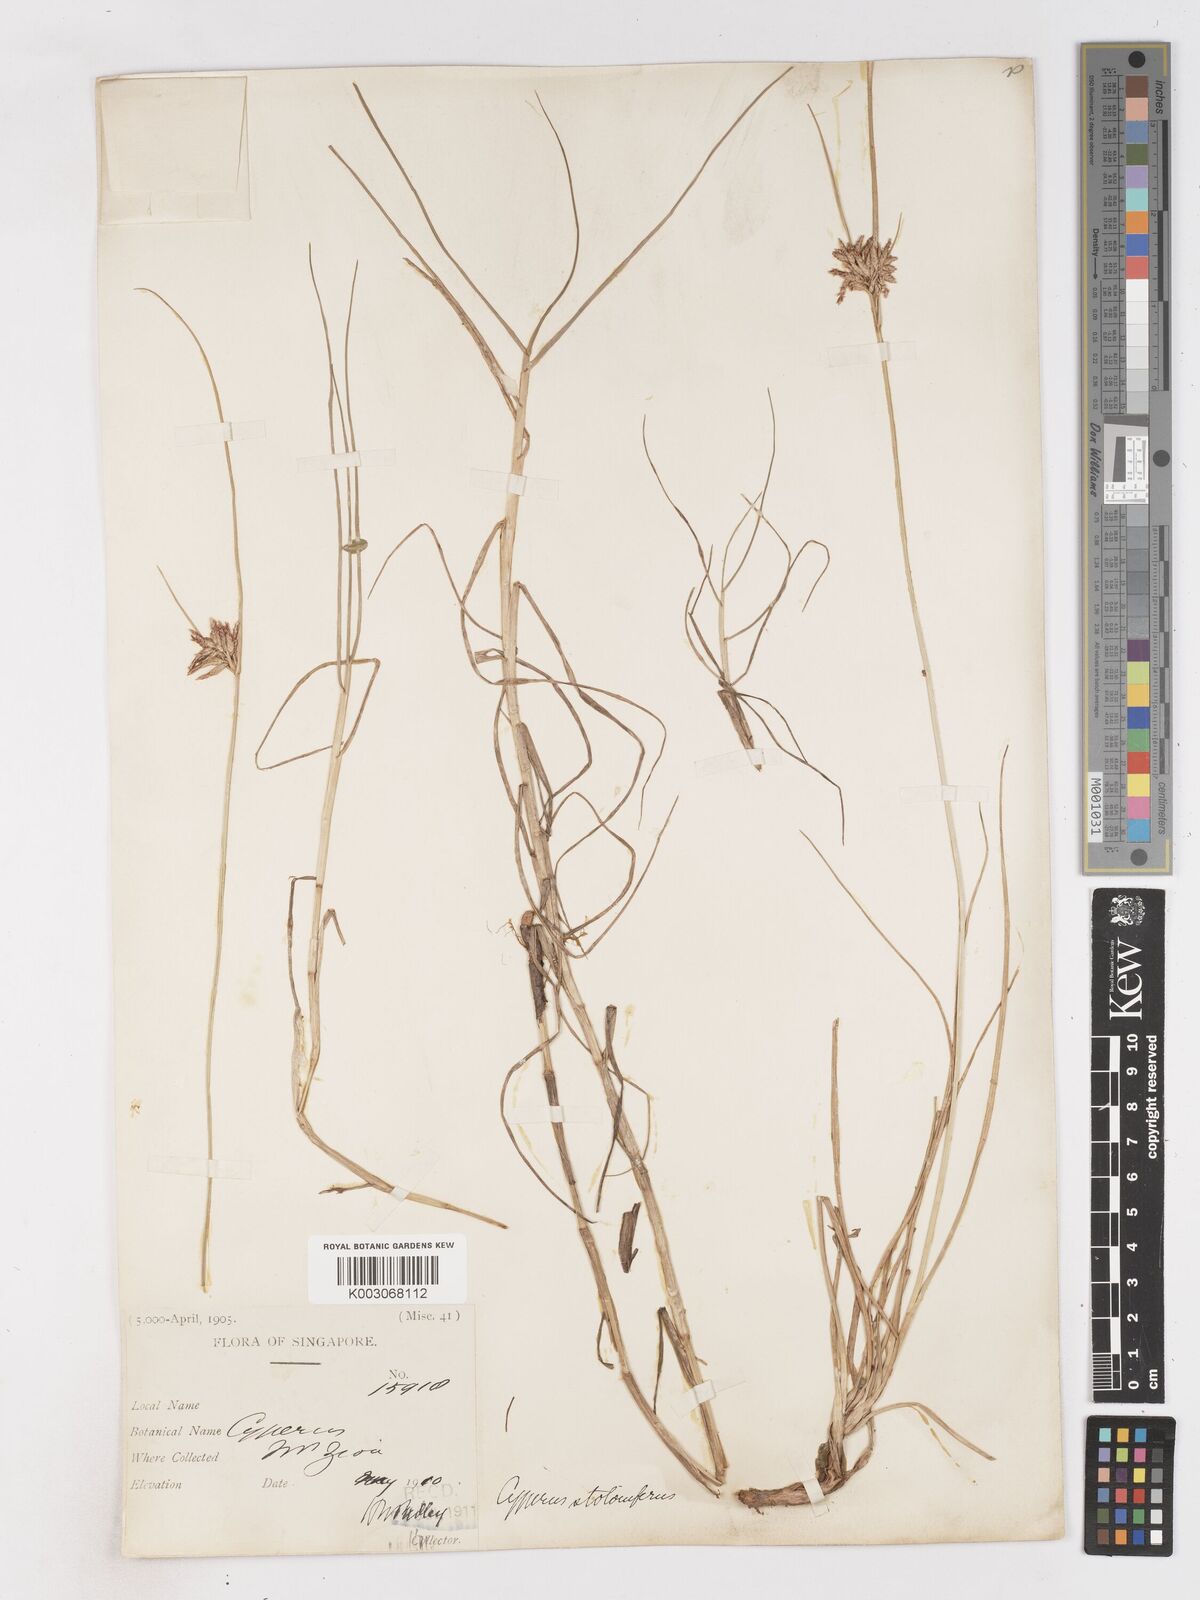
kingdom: Plantae
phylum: Tracheophyta
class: Liliopsida
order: Poales
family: Cyperaceae
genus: Cyperus
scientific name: Cyperus bulbosus
